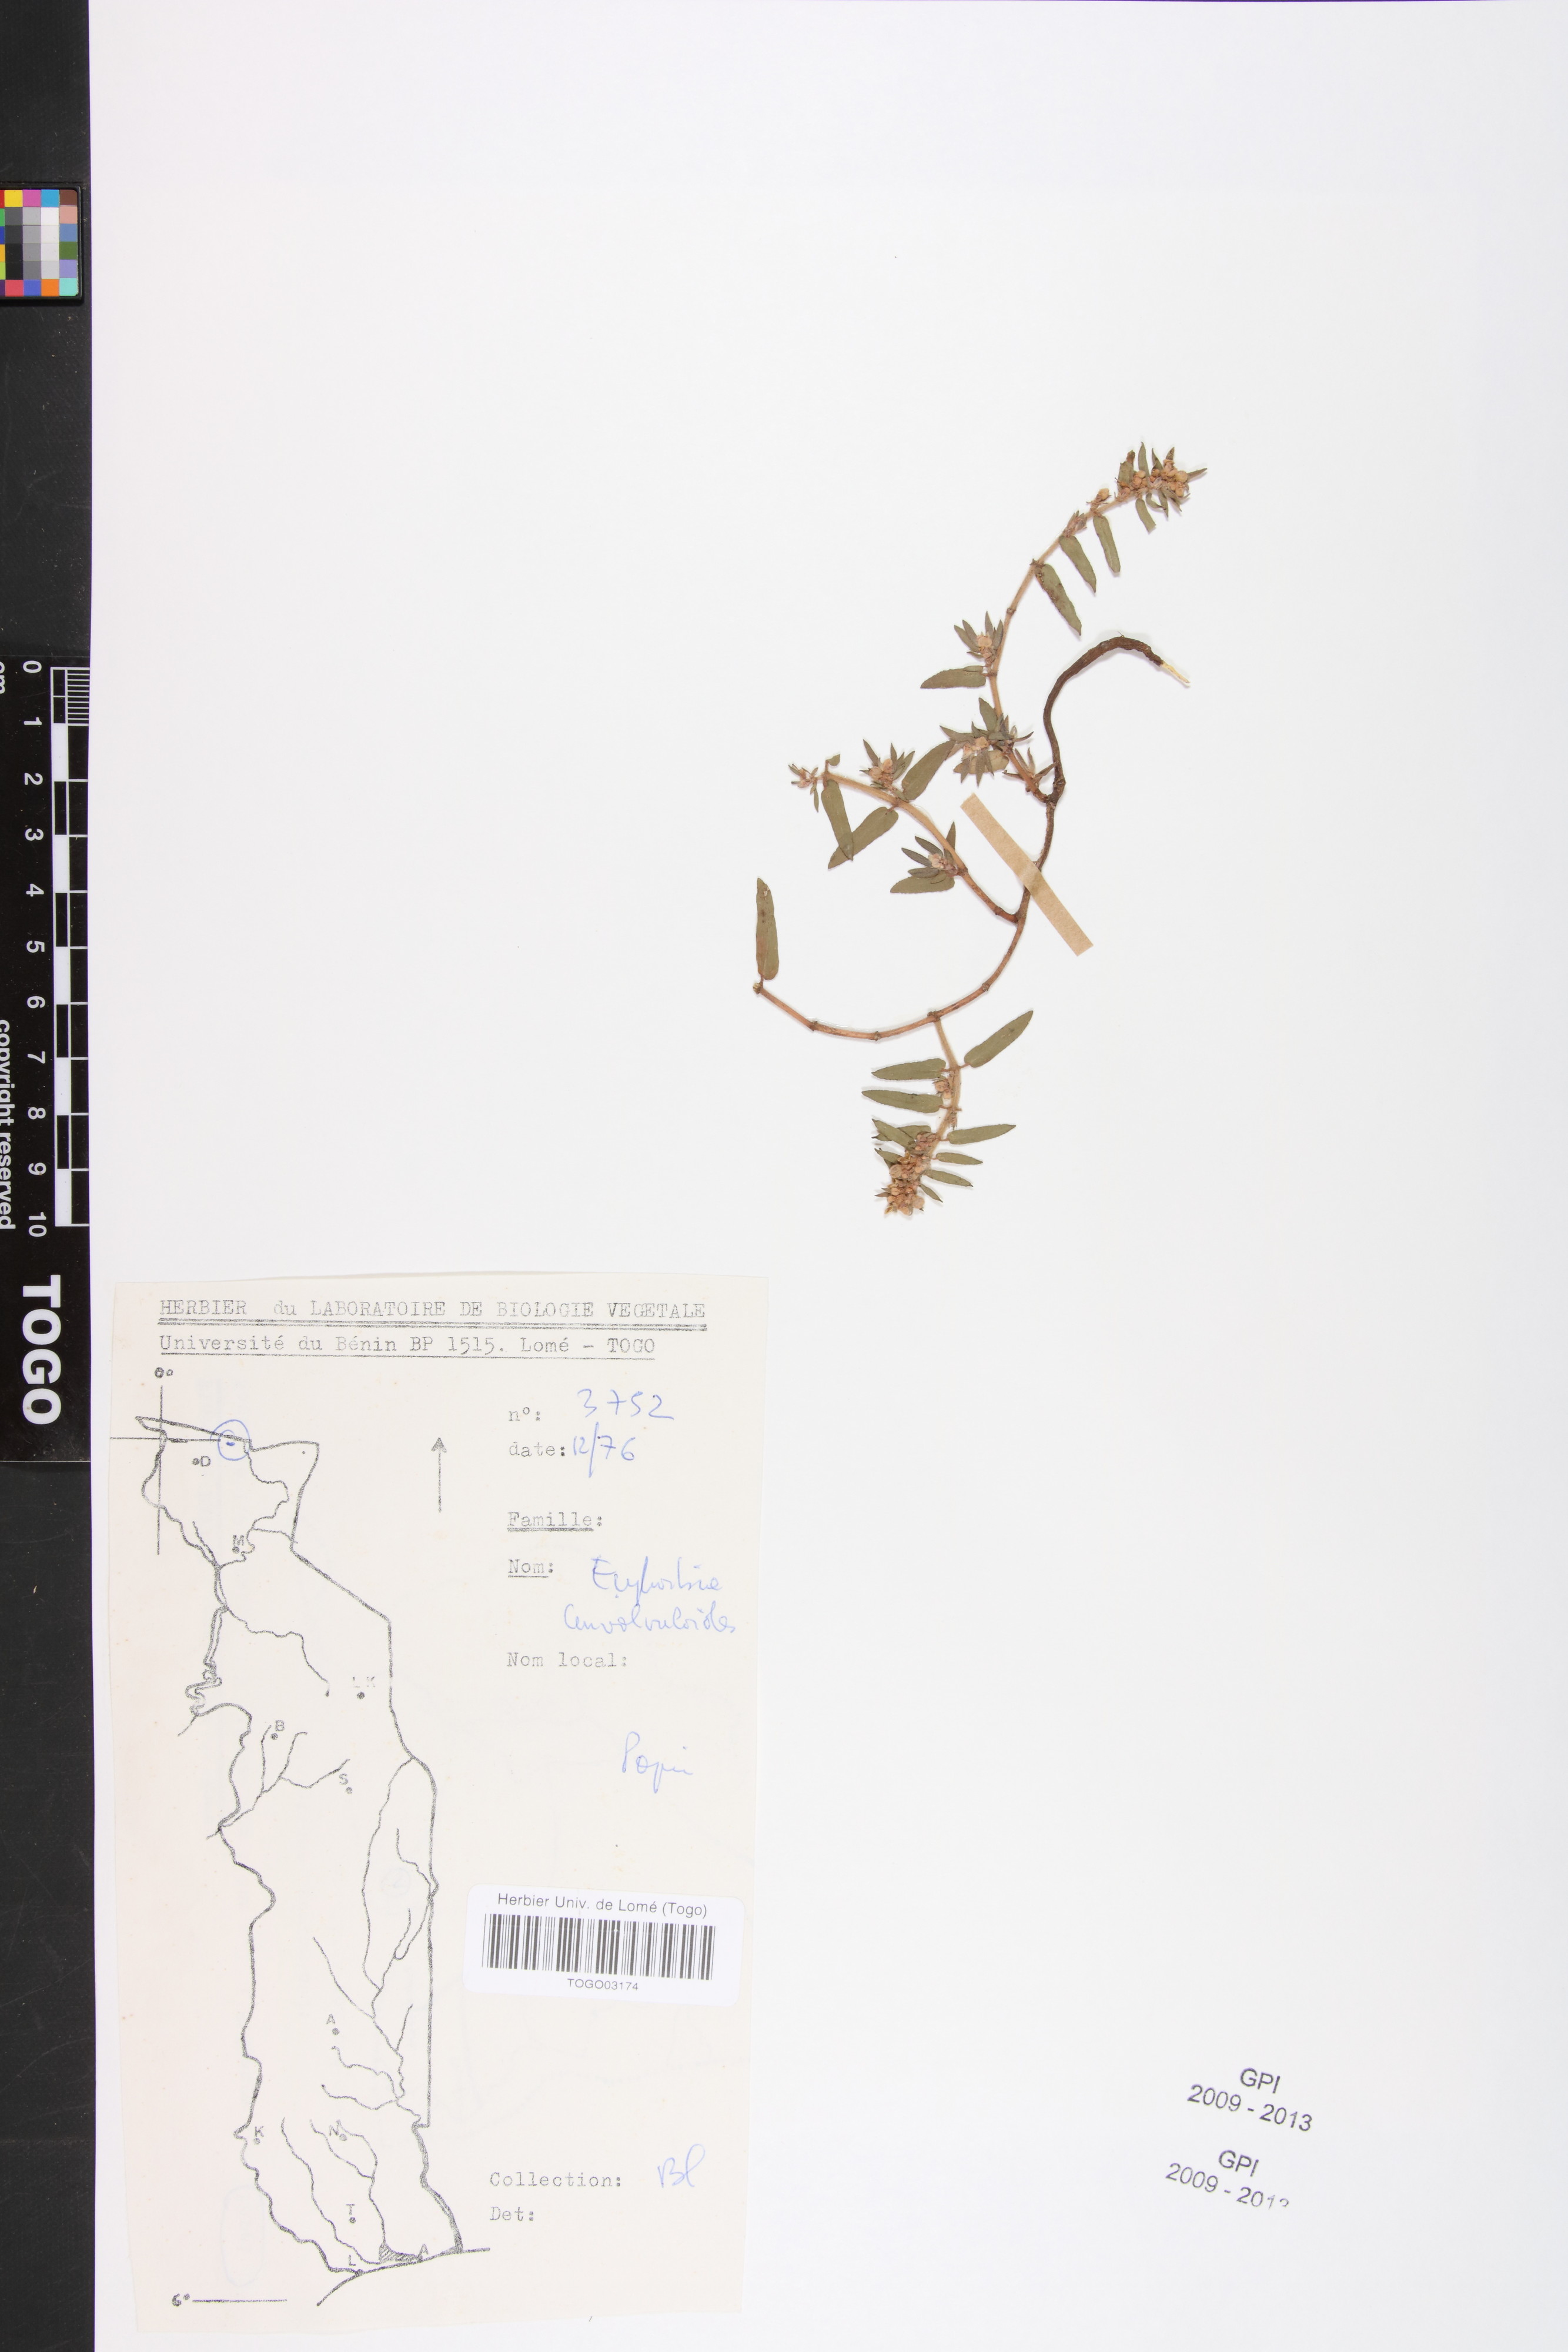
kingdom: Plantae
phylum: Tracheophyta
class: Magnoliopsida
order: Malpighiales
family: Euphorbiaceae
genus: Euphorbia
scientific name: Euphorbia convolvuloides
